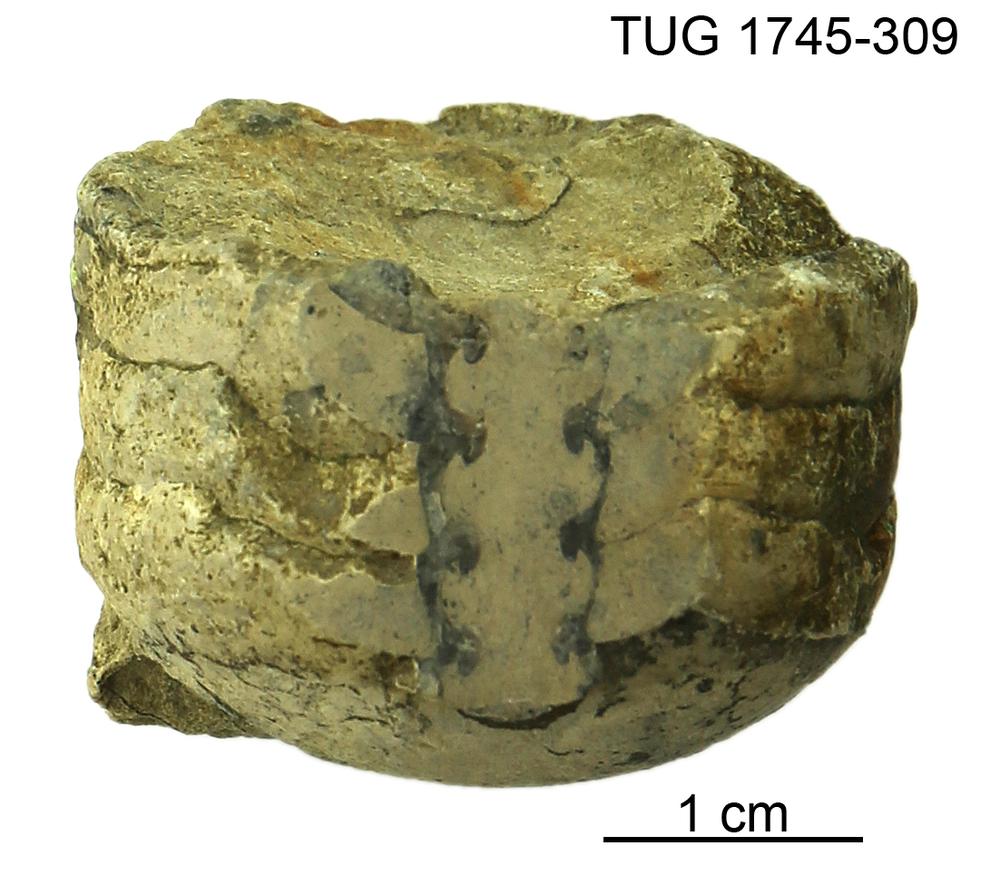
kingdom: Animalia
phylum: Mollusca
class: Cephalopoda
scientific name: Cephalopoda
